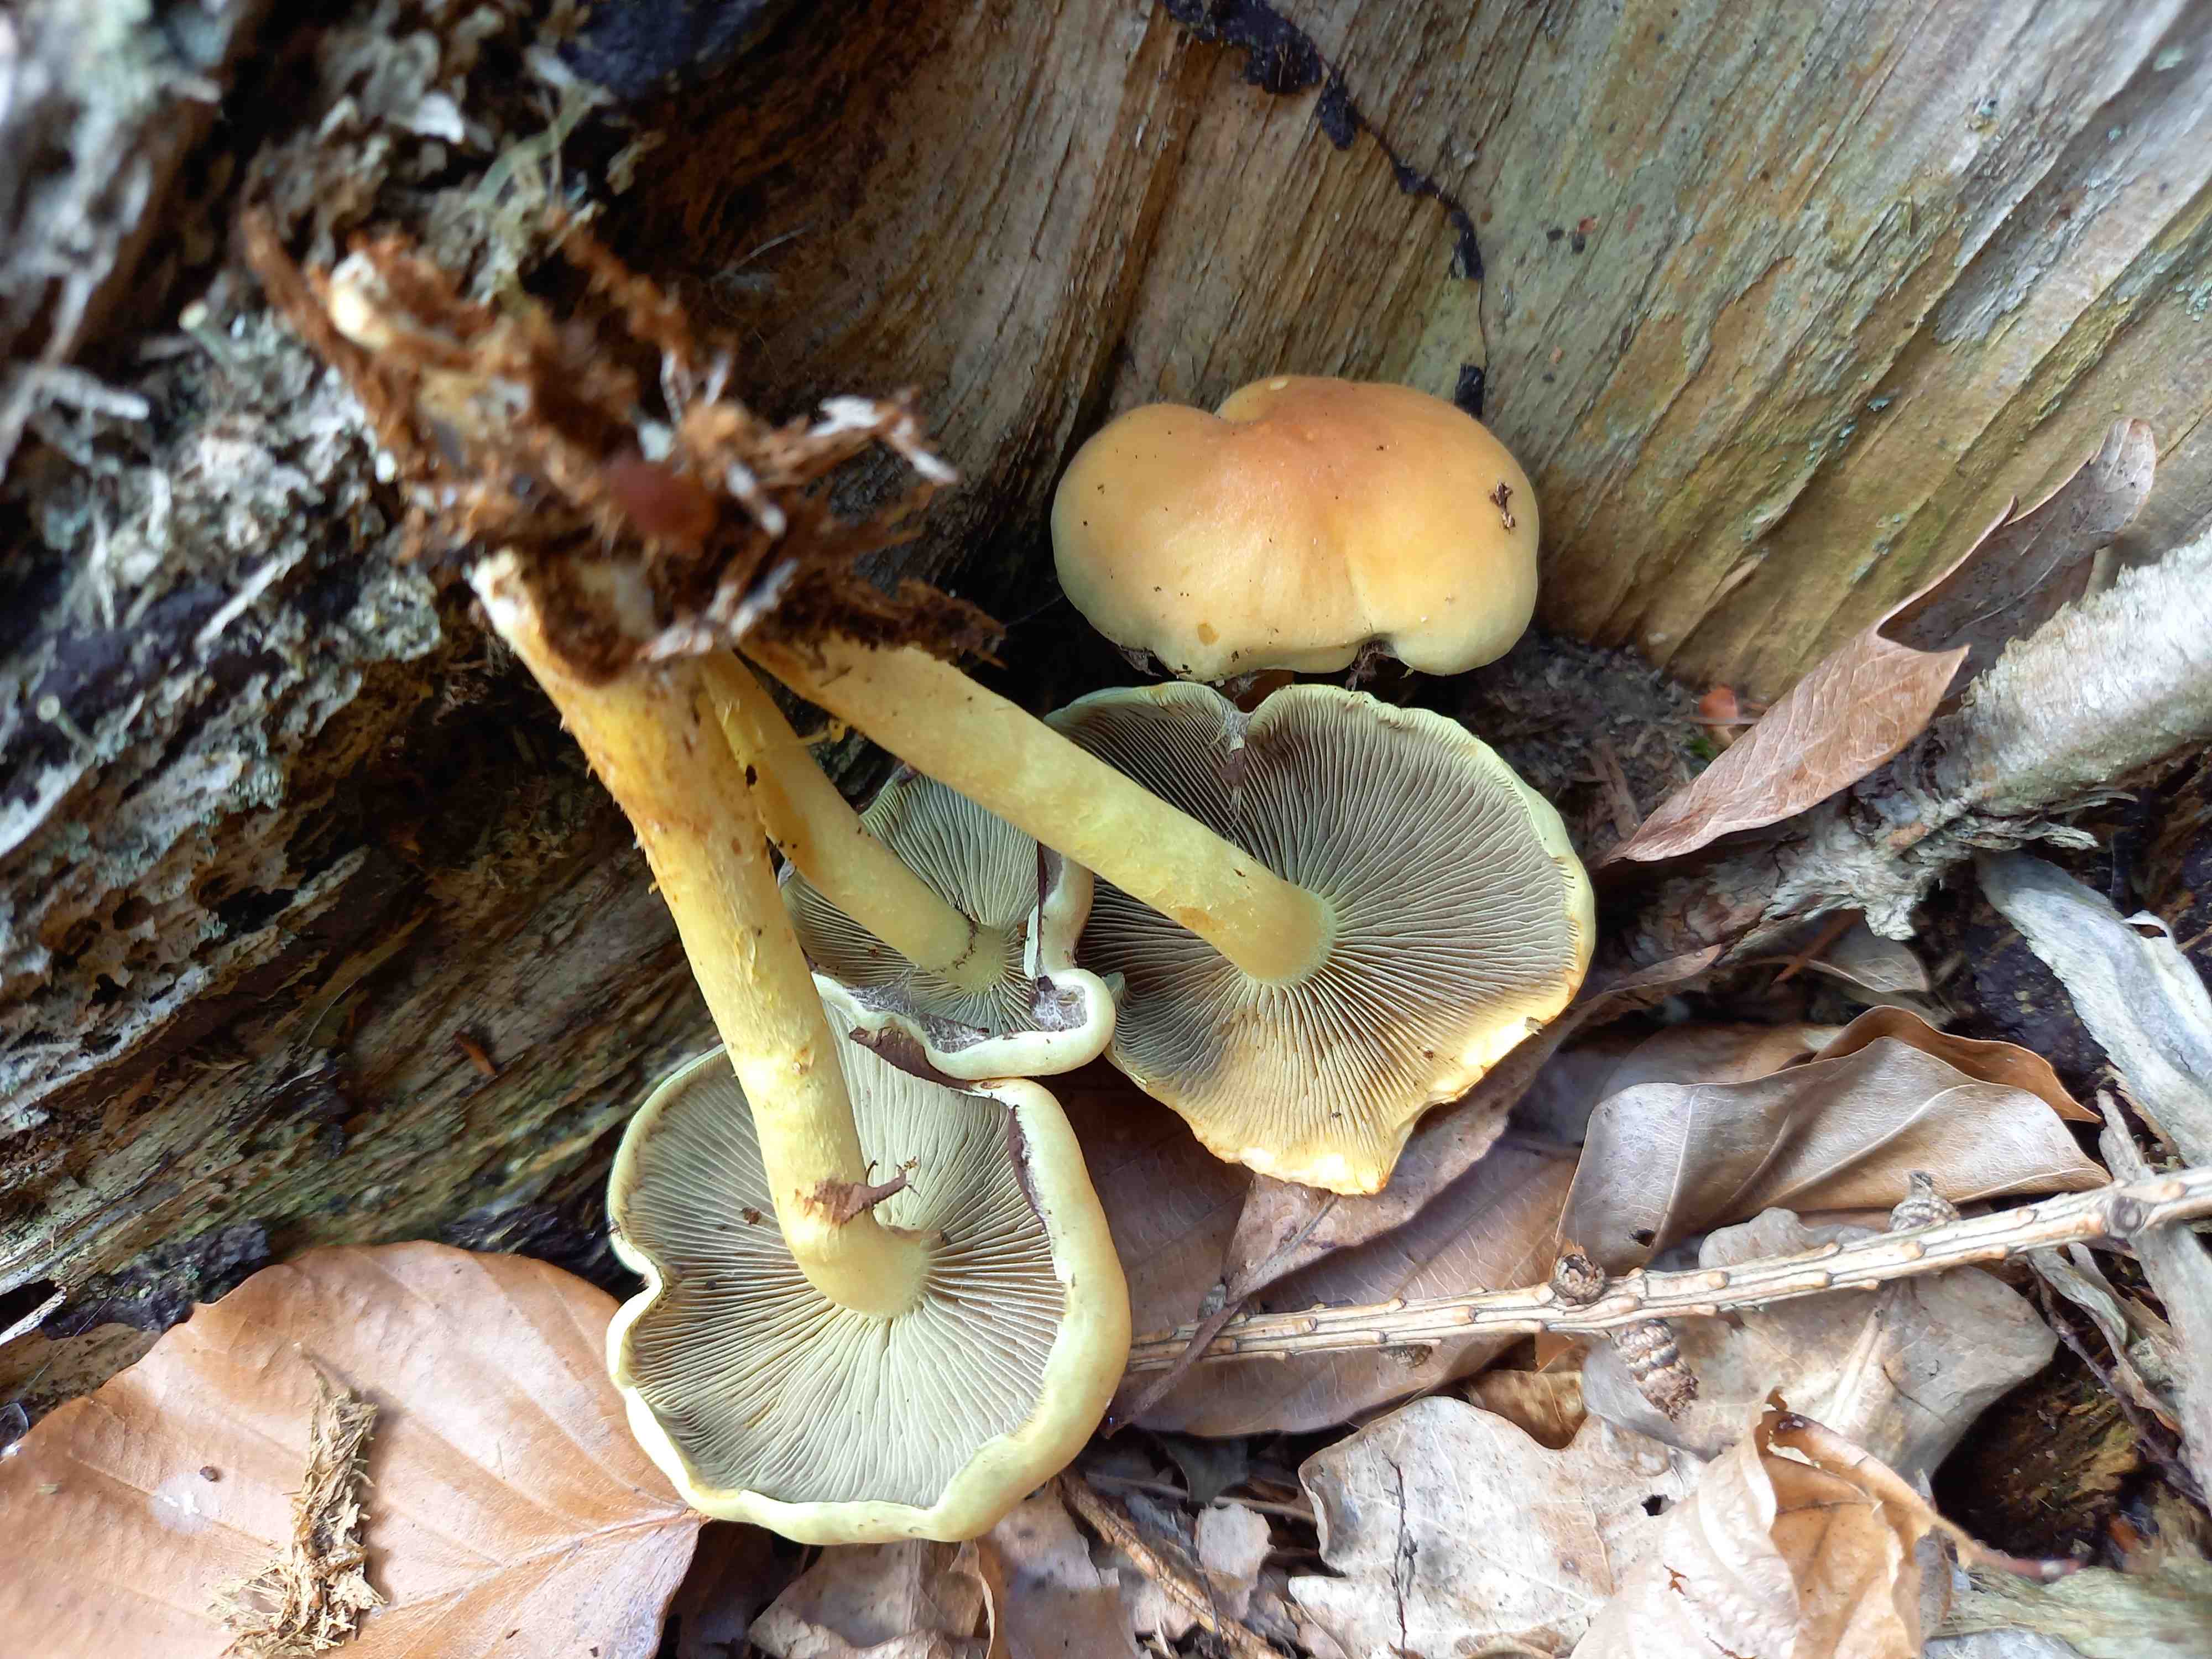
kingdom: Fungi
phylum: Basidiomycota
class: Agaricomycetes
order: Agaricales
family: Strophariaceae
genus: Hypholoma
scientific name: Hypholoma fasciculare
